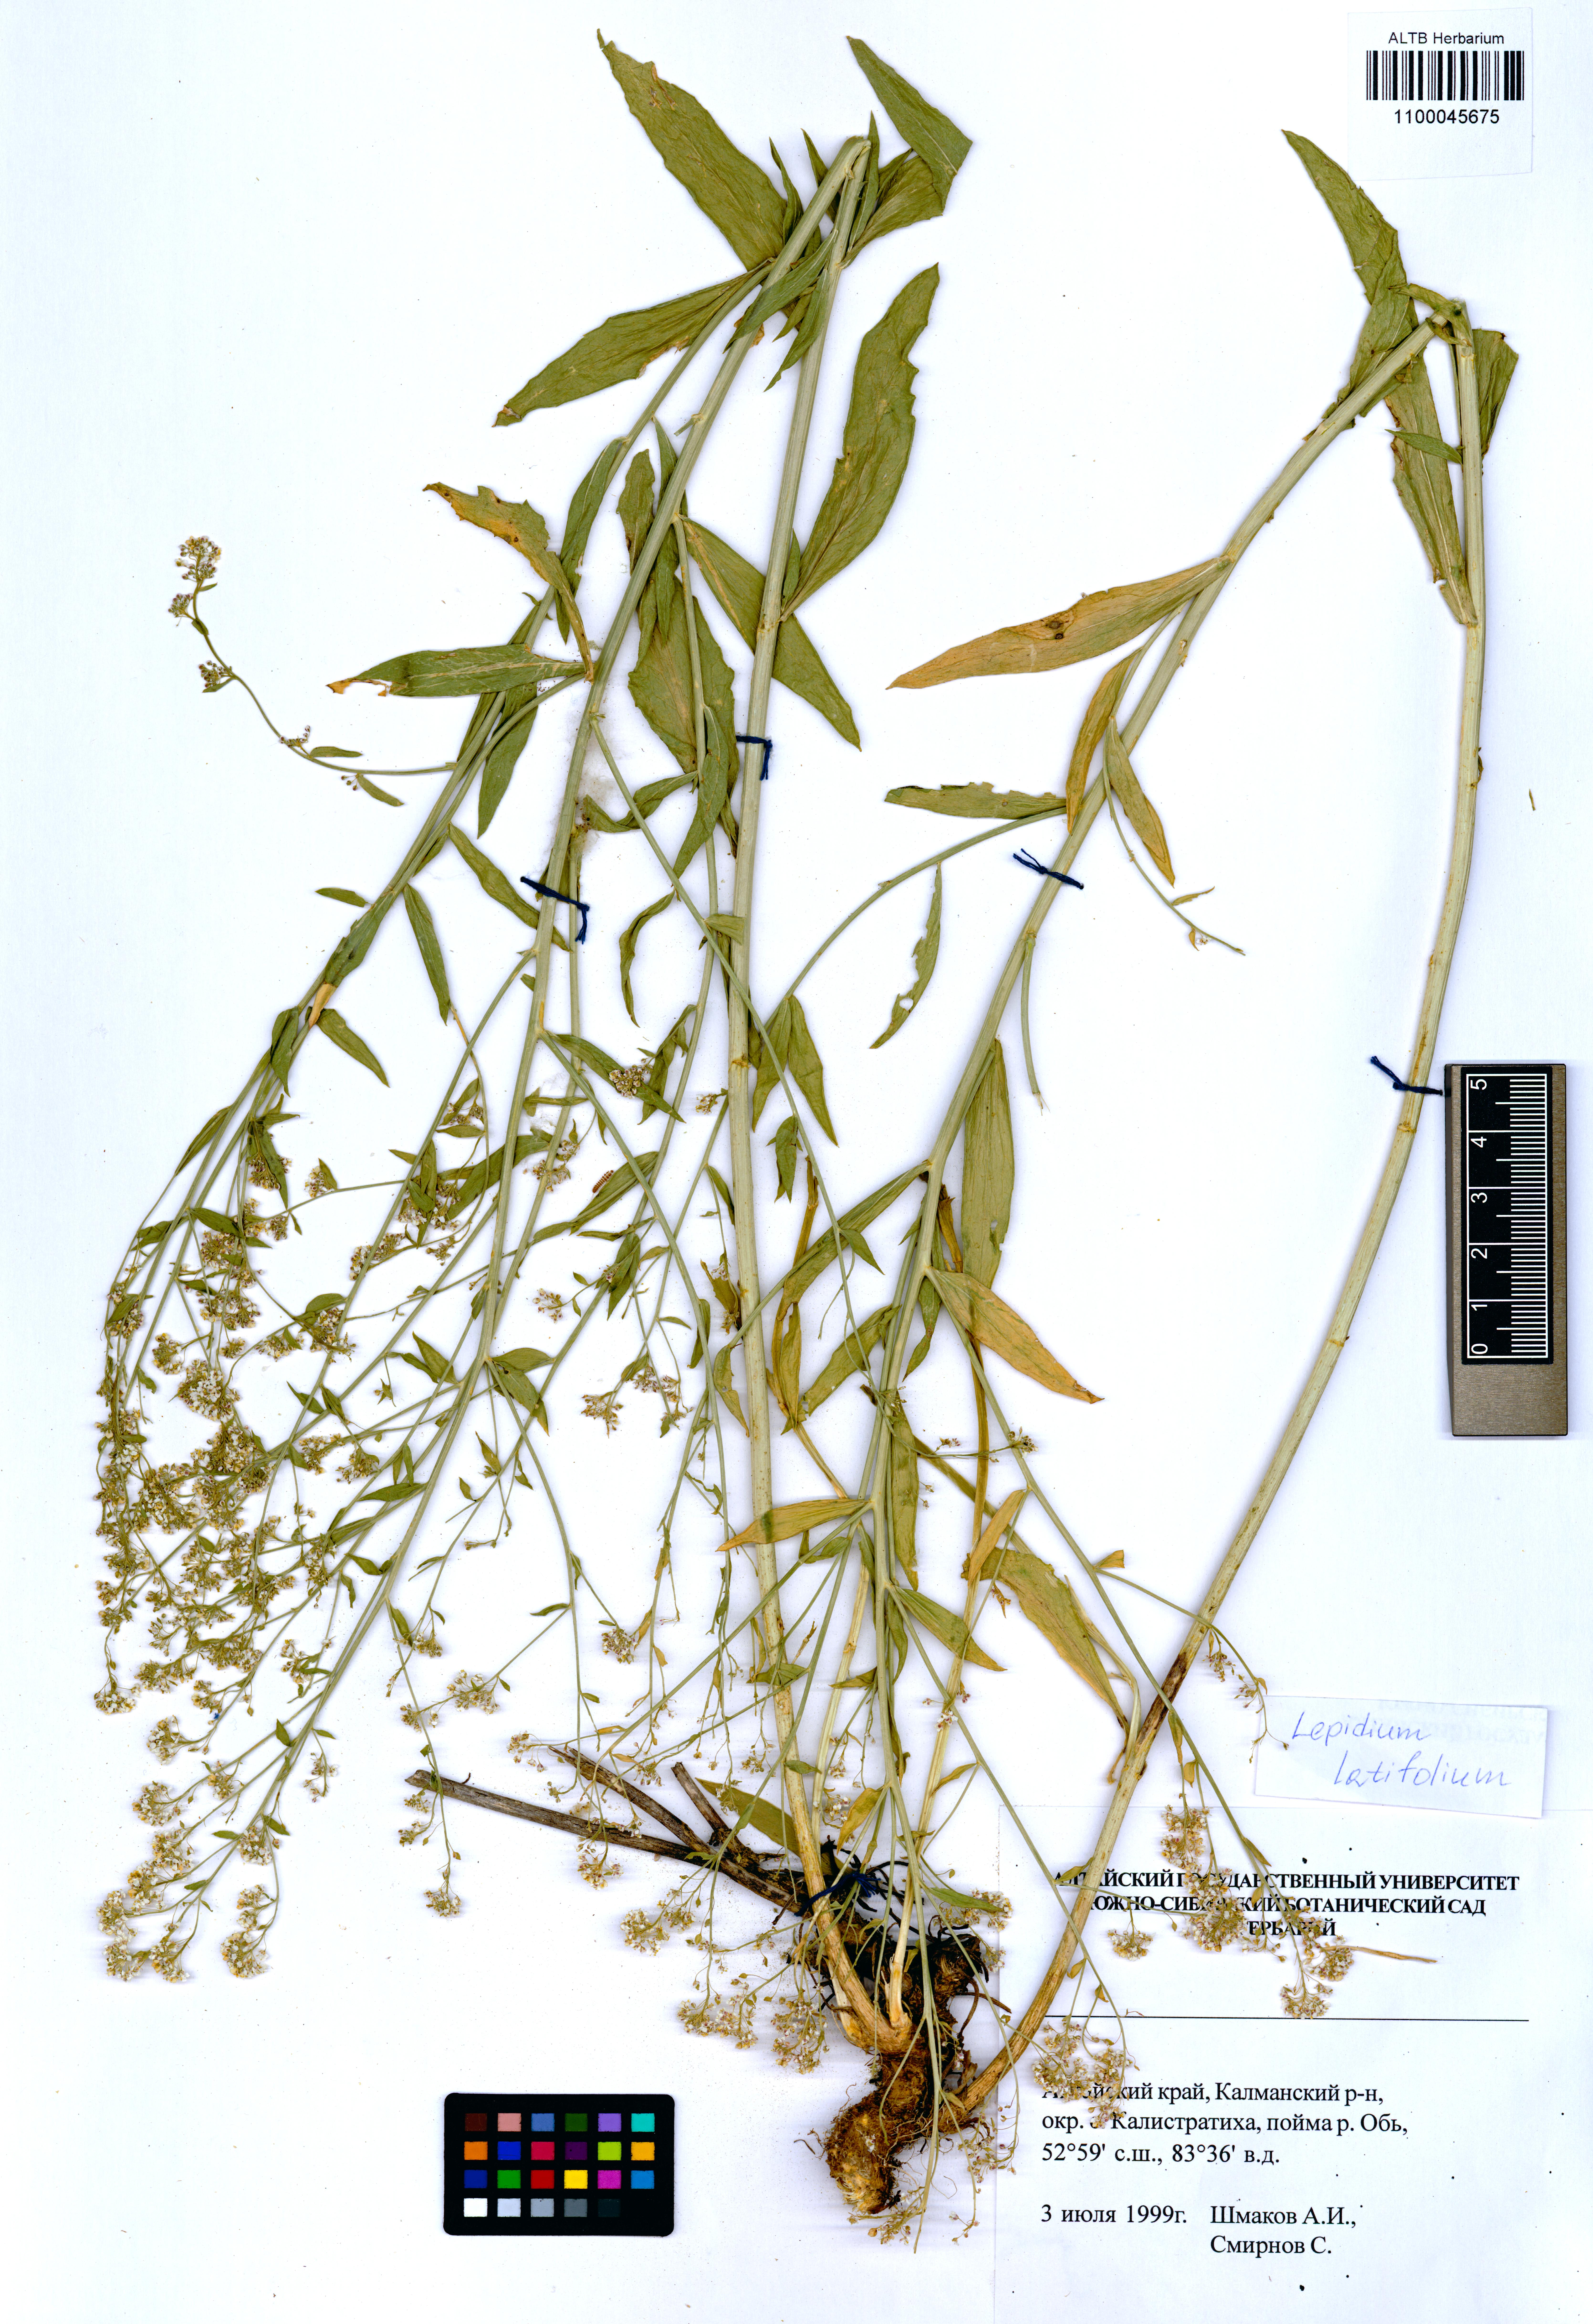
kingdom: Plantae
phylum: Tracheophyta
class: Magnoliopsida
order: Brassicales
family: Brassicaceae
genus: Lepidium
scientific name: Lepidium latifolium
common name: Dittander
